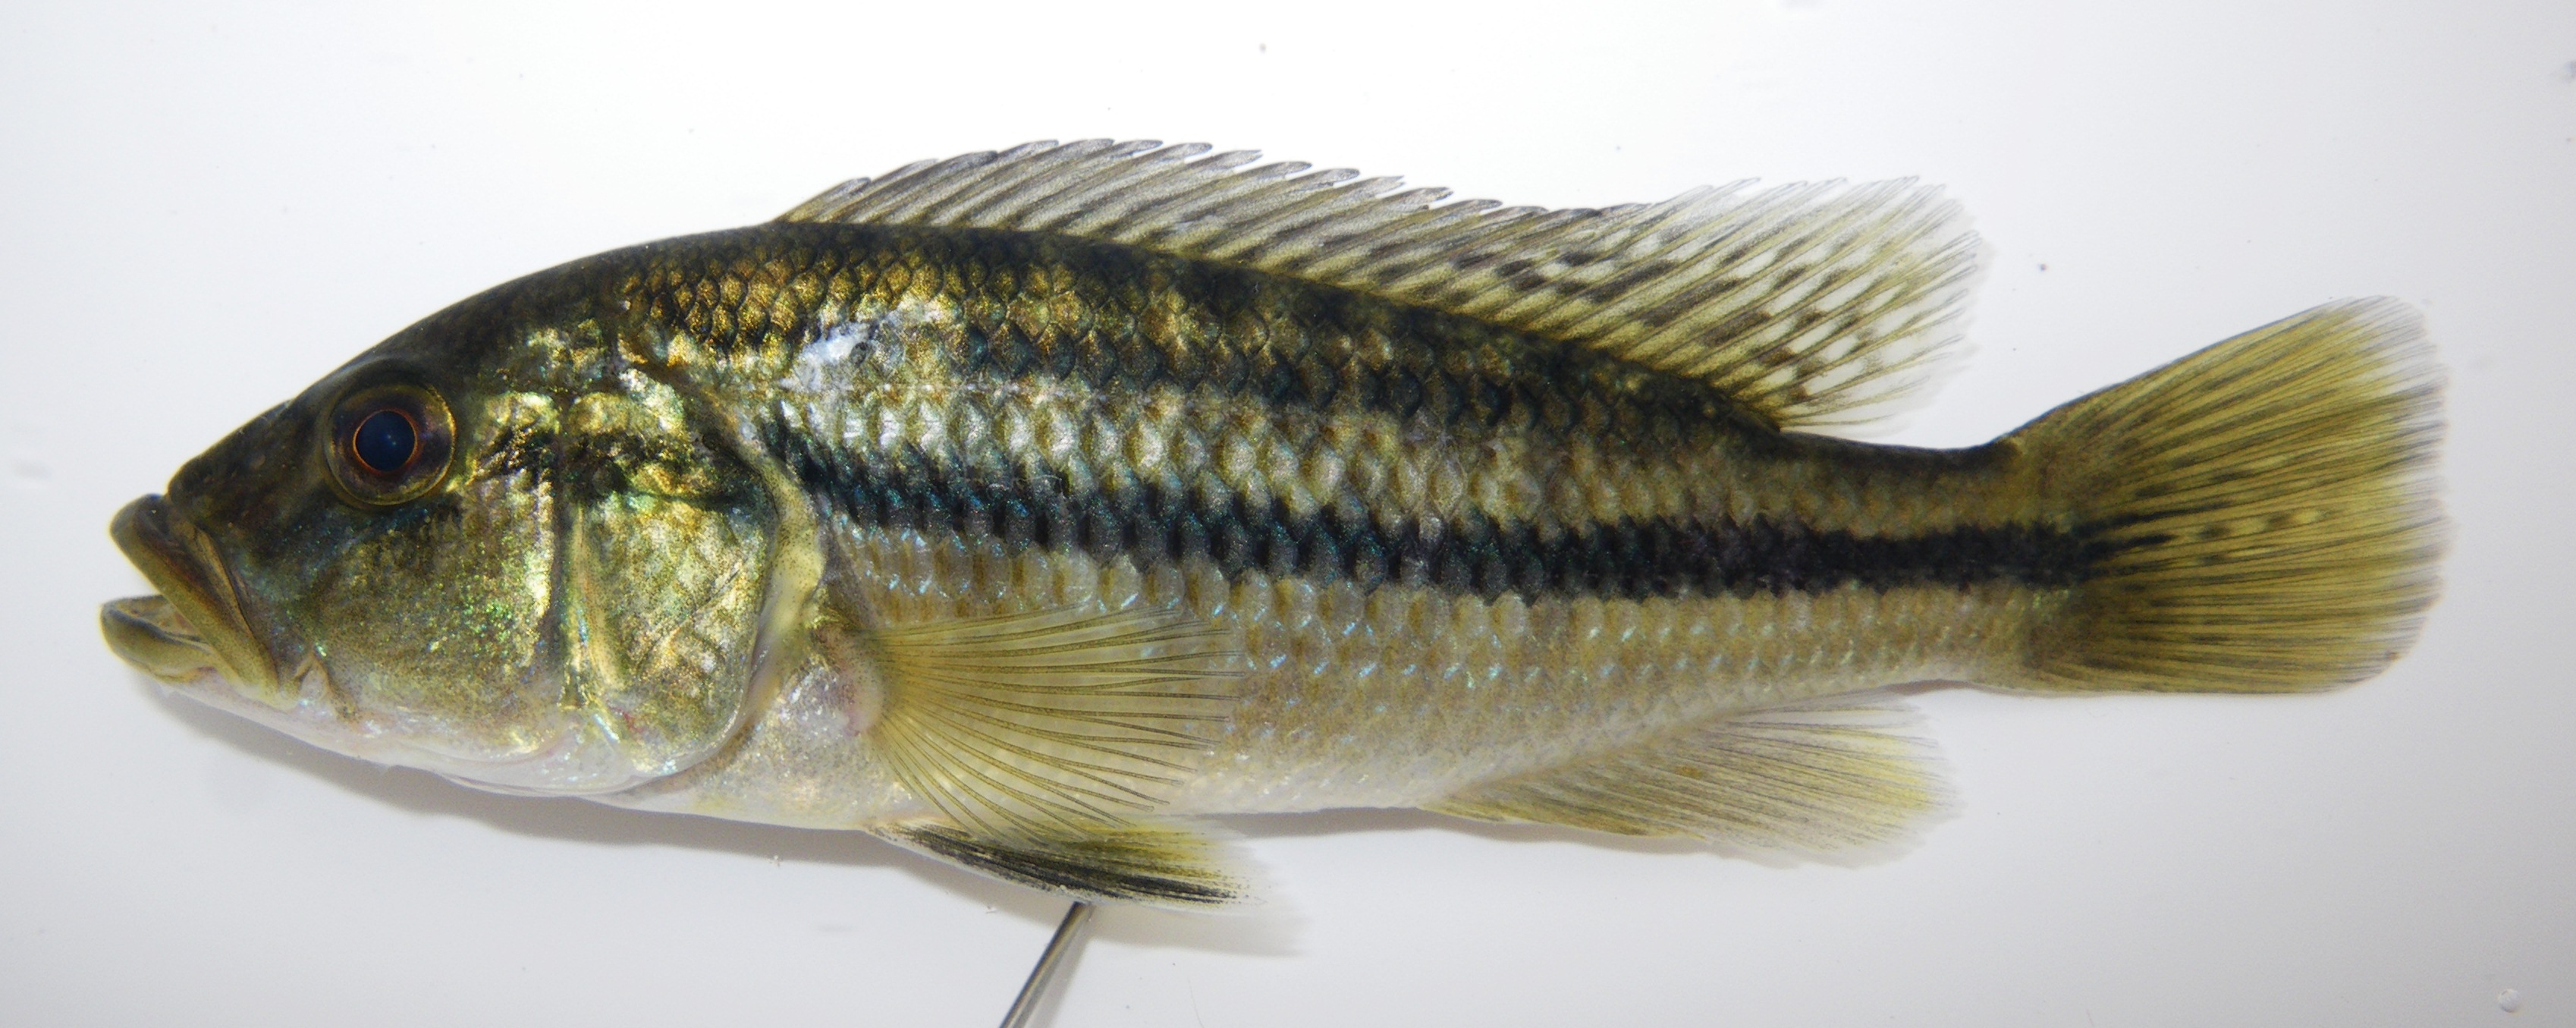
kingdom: Animalia
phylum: Chordata
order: Perciformes
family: Cichlidae
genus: Serranochromis
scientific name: Serranochromis robustus
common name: Yellow-belly bream
